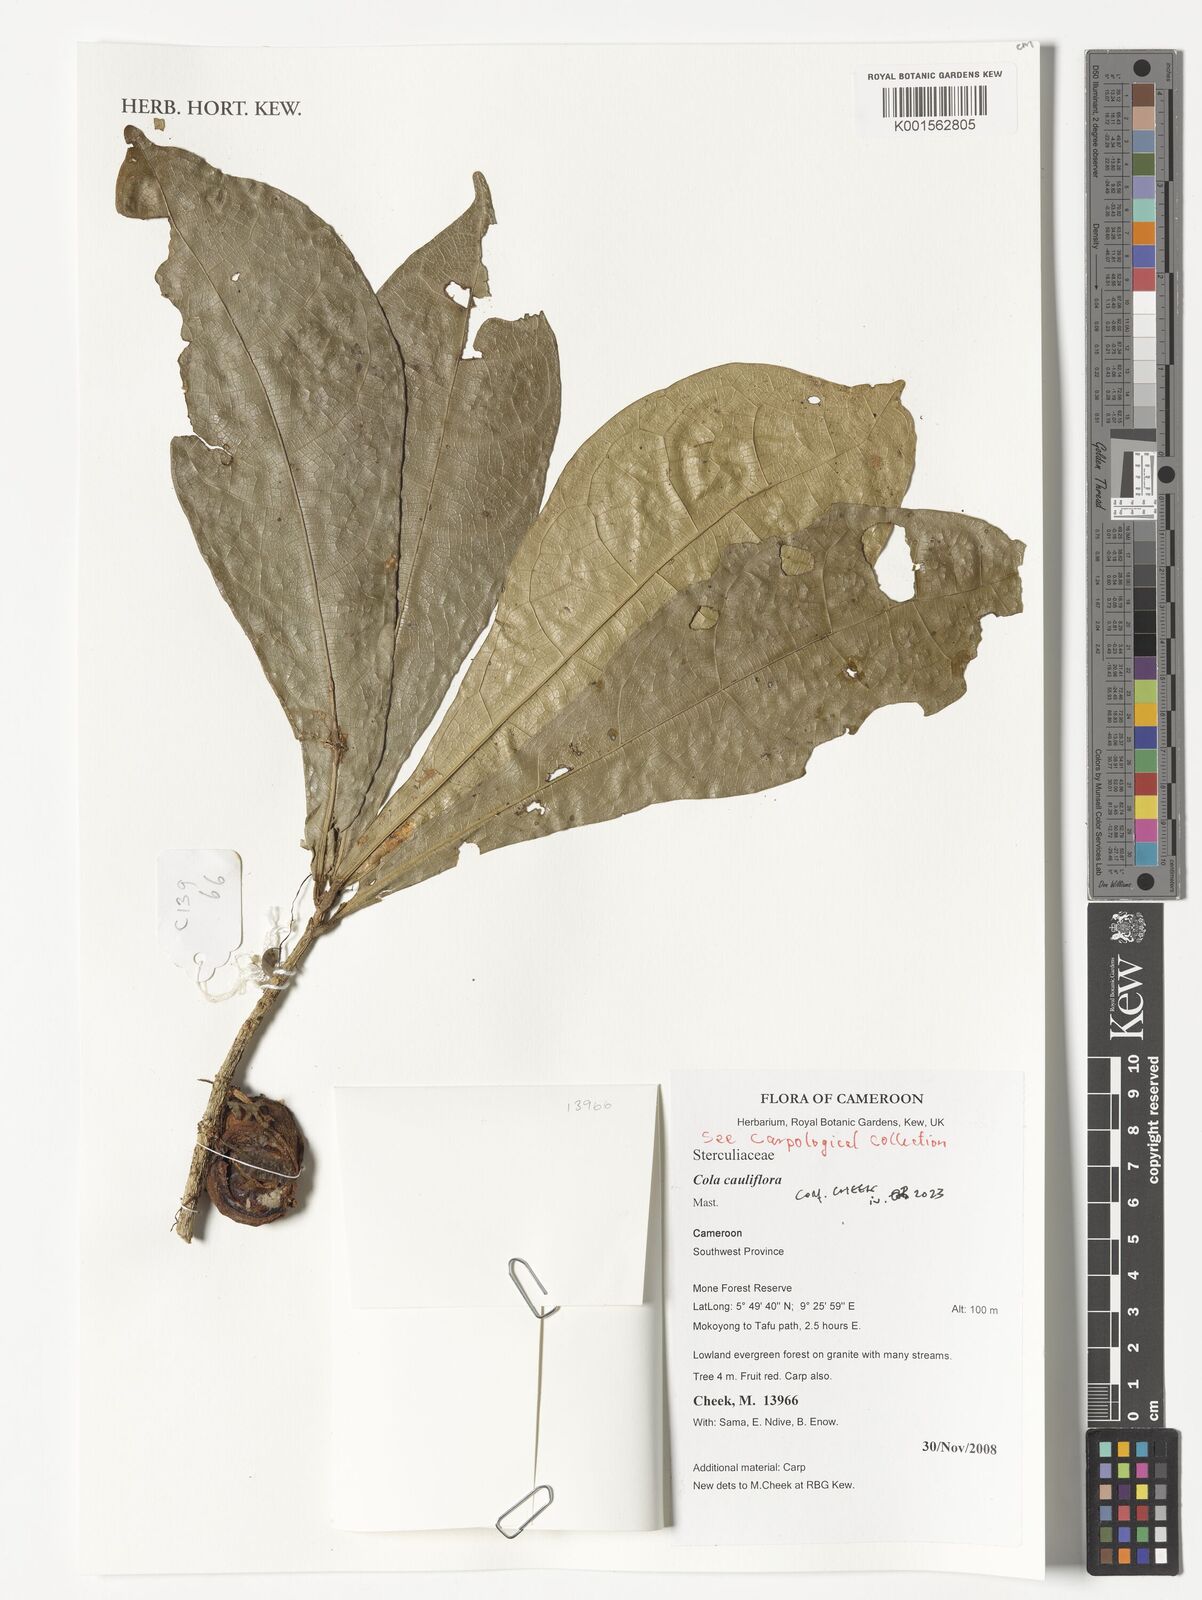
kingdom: Plantae
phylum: Tracheophyta
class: Magnoliopsida
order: Malvales
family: Malvaceae
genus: Cola
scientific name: Cola cauliflora
